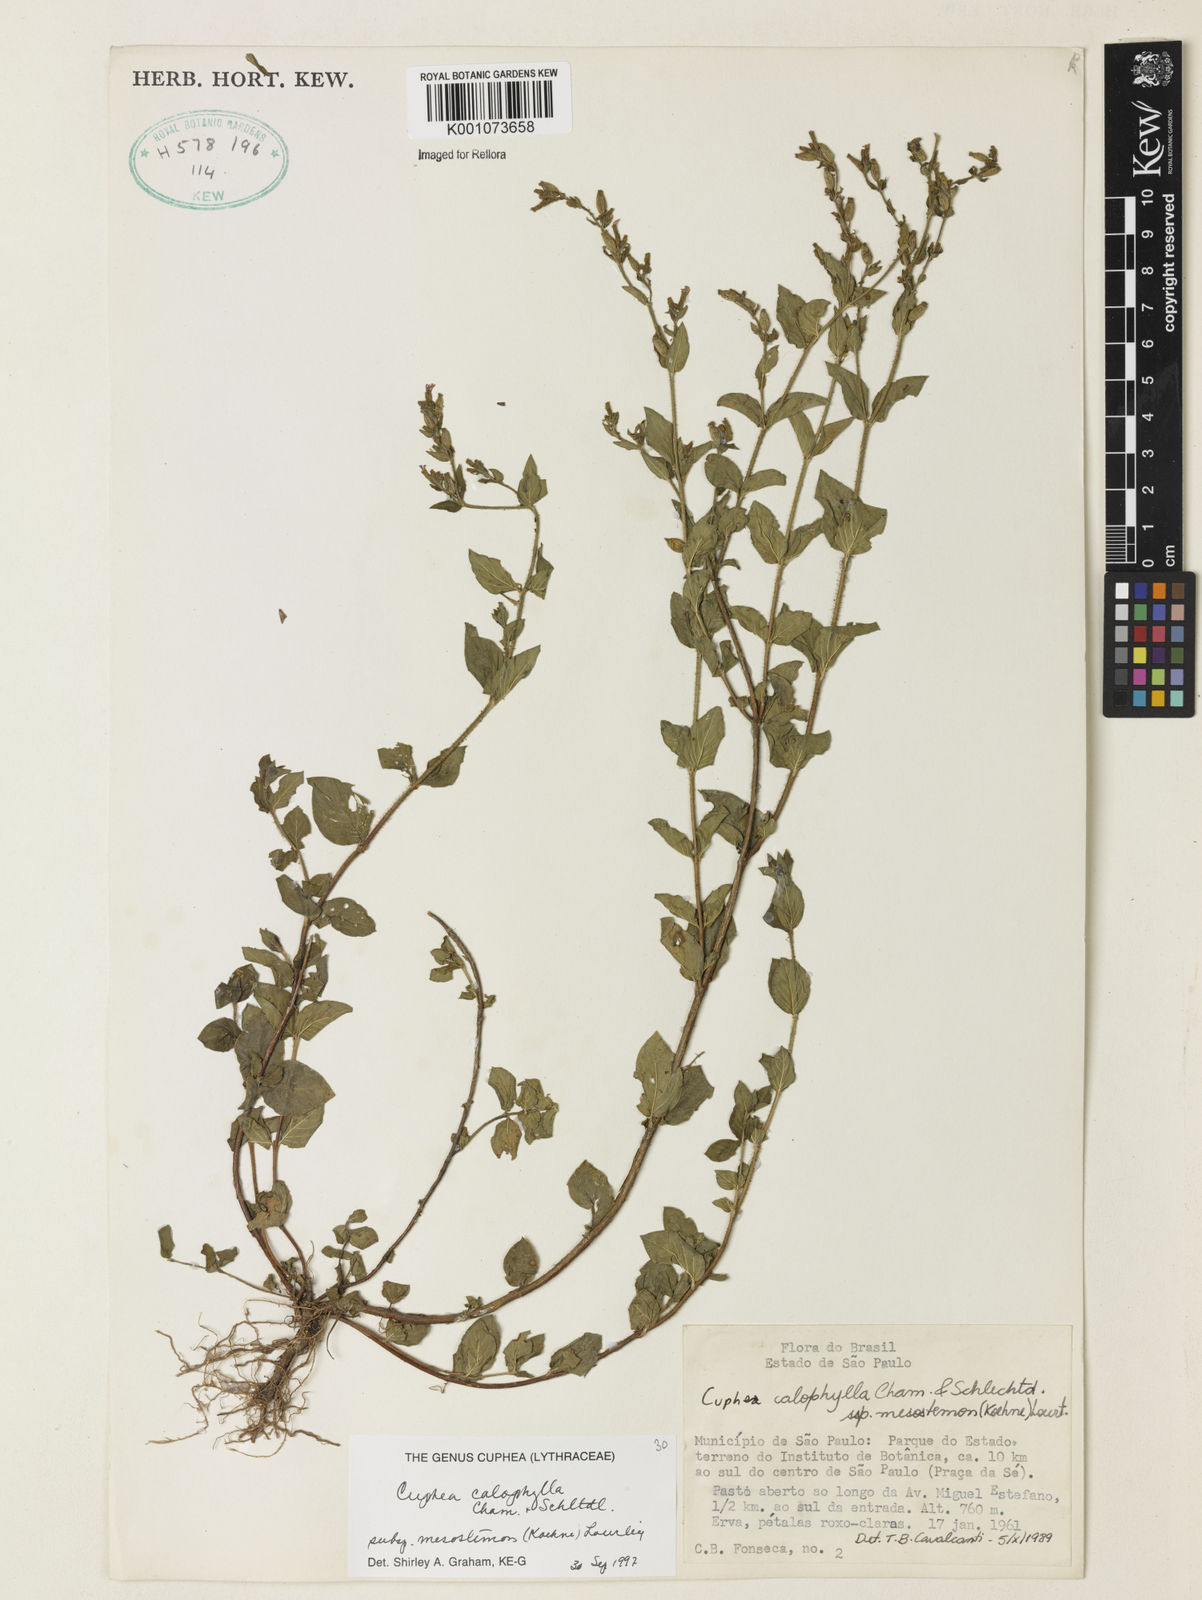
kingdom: Plantae
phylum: Tracheophyta
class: Magnoliopsida
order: Myrtales
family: Lythraceae
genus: Cuphea
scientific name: Cuphea calophylla
